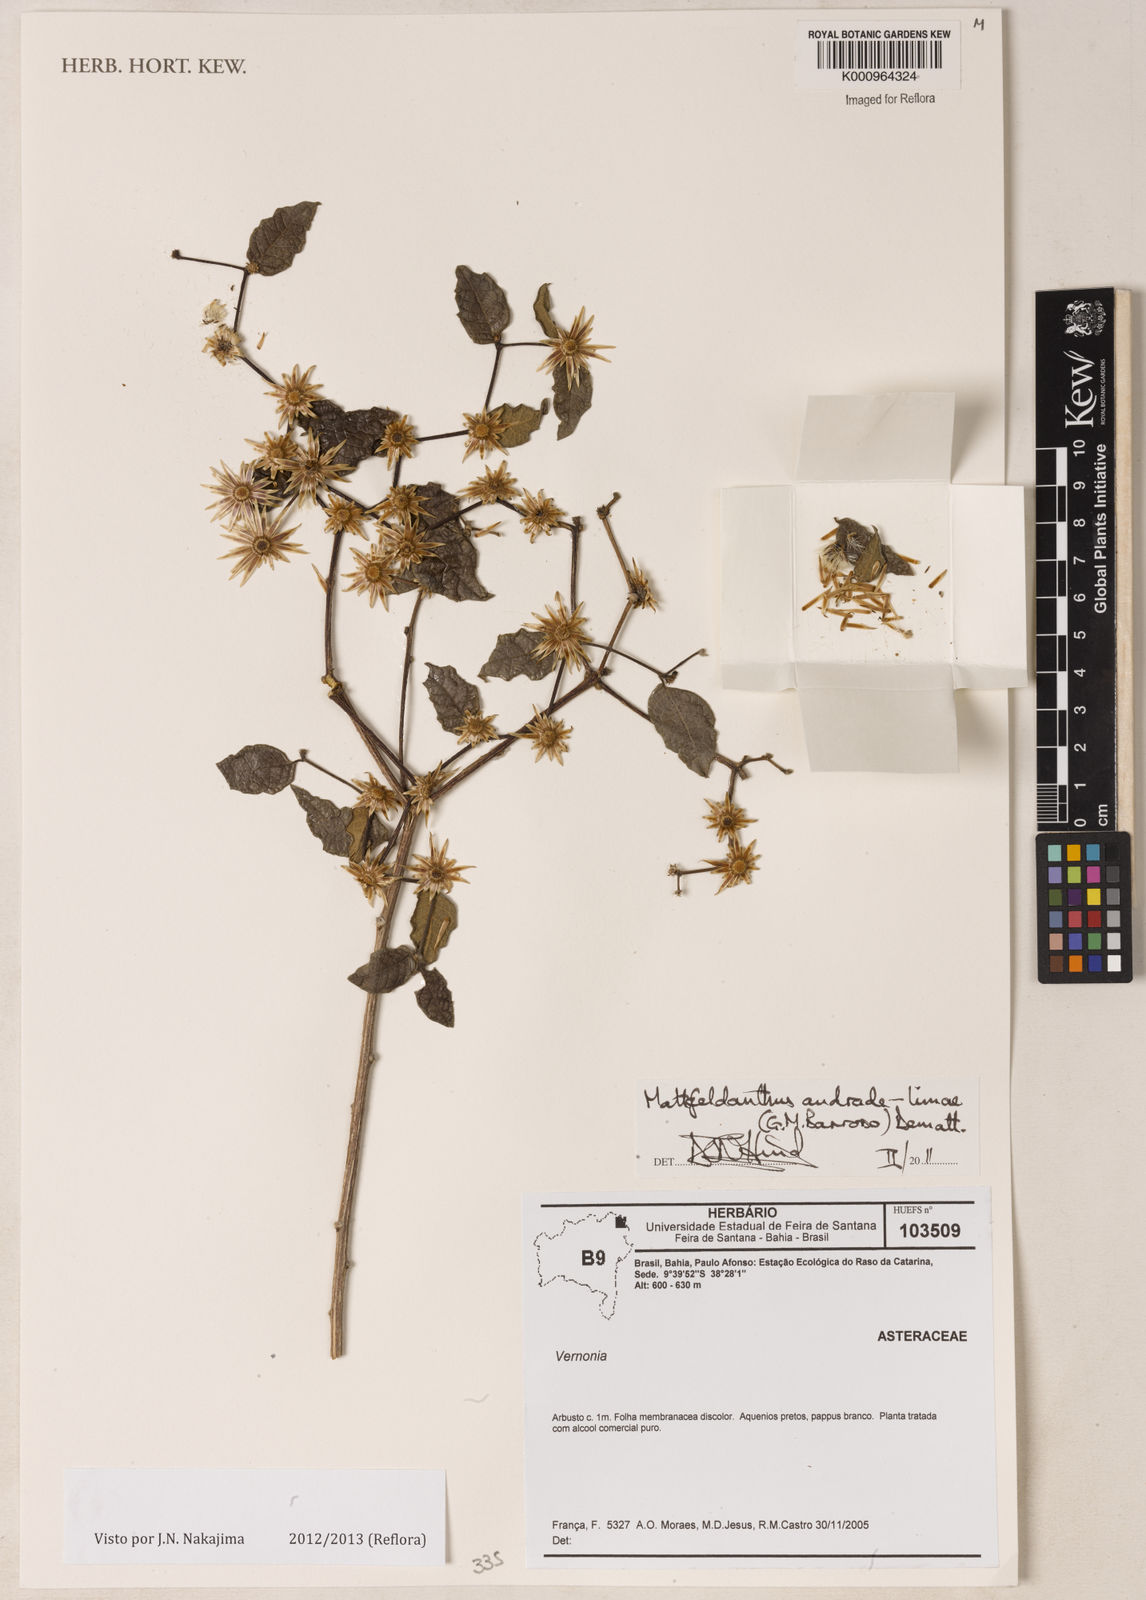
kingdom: Plantae
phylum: Tracheophyta
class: Magnoliopsida
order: Asterales
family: Asteraceae
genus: Mattfeldanthus
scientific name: Mattfeldanthus andrade-limae
